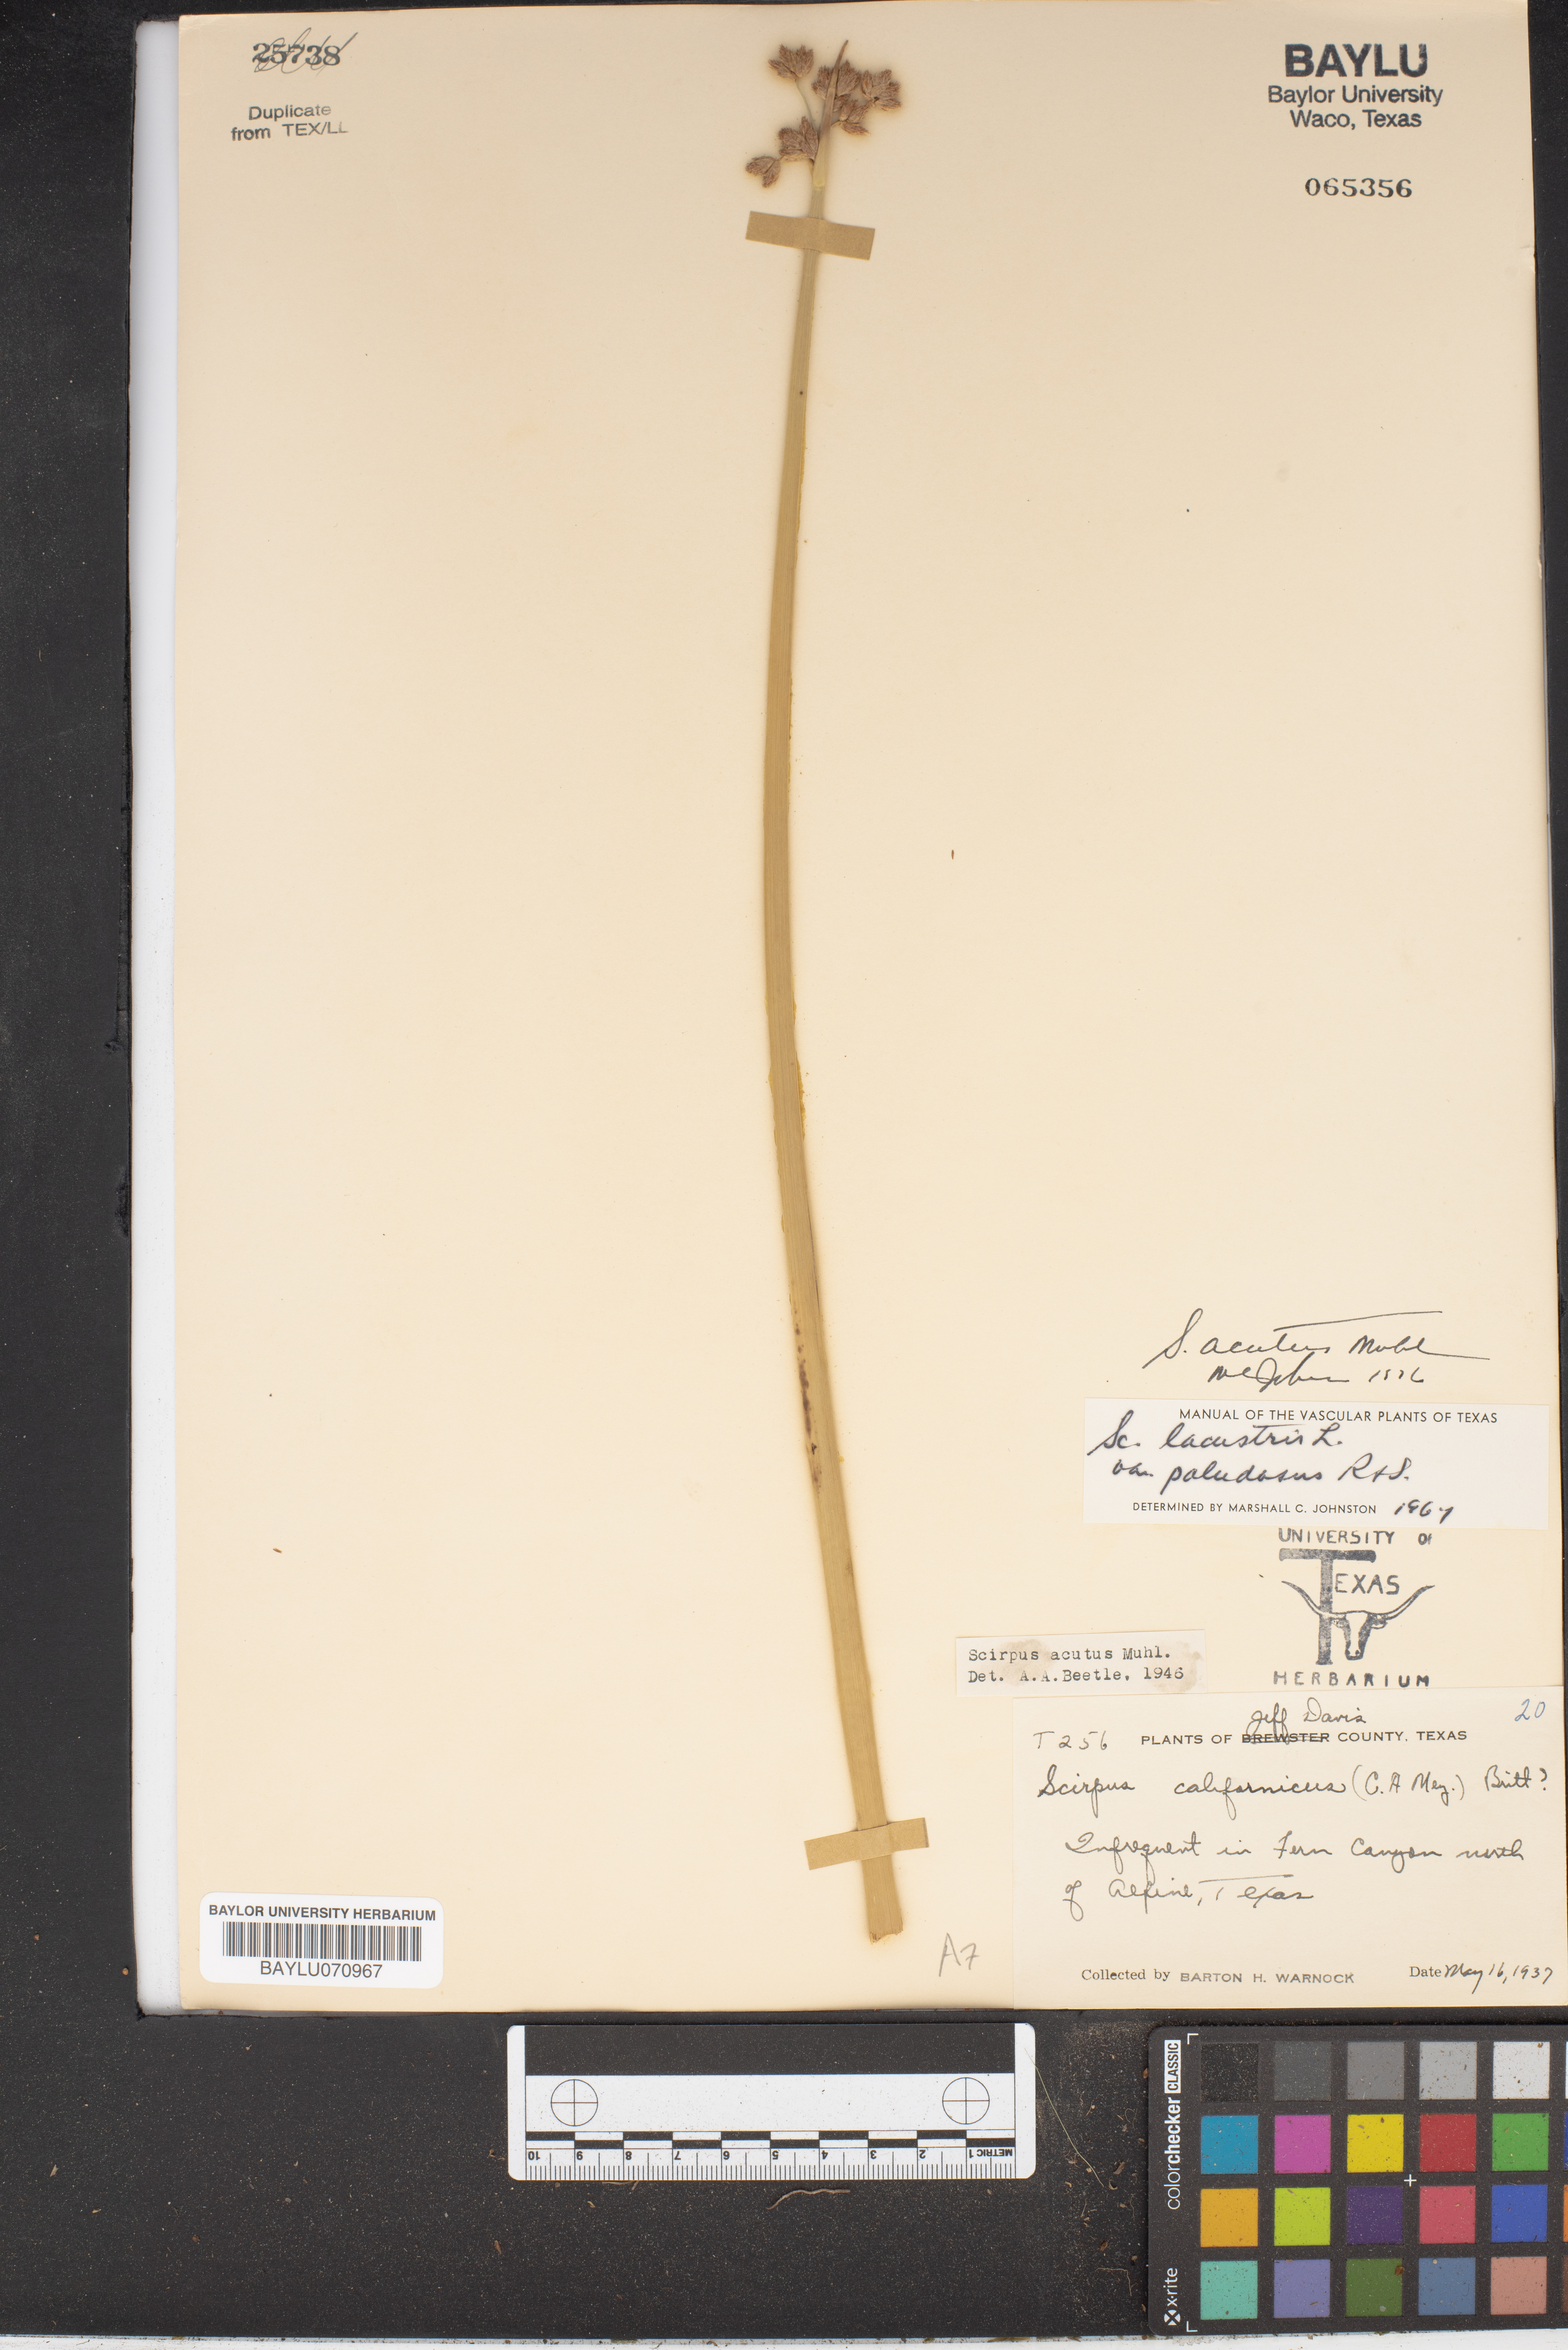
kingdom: Plantae
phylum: Tracheophyta
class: Liliopsida
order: Poales
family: Cyperaceae
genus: Scirpus
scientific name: Scirpus acutus
